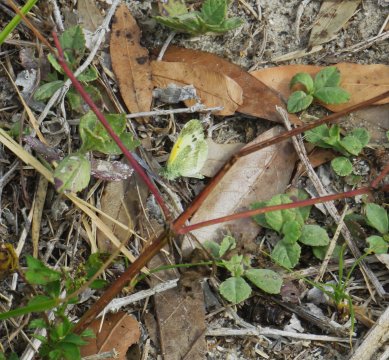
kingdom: Animalia
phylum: Arthropoda
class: Insecta
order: Lepidoptera
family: Pieridae
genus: Nathalis
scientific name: Nathalis iole
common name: Dainty Sulphur
